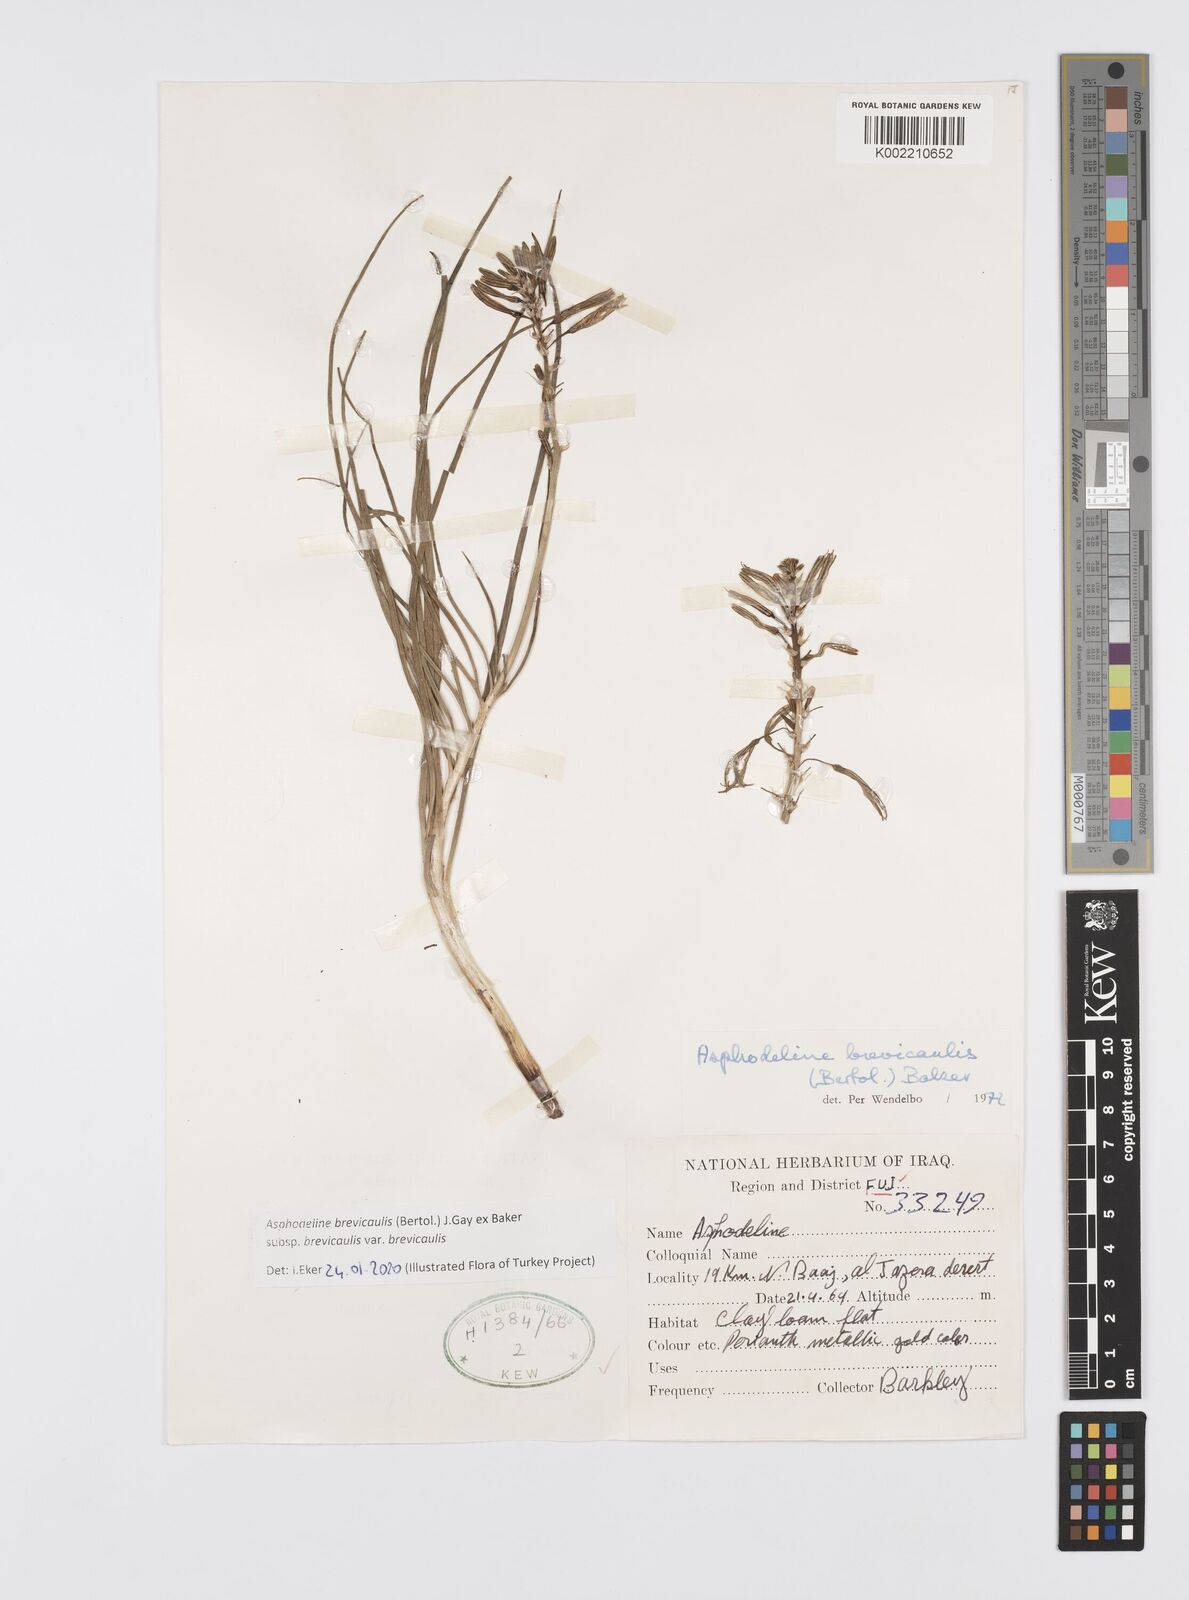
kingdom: Plantae
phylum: Tracheophyta
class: Liliopsida
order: Asparagales
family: Asphodelaceae
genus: Asphodeline
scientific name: Asphodeline brevicaulis
